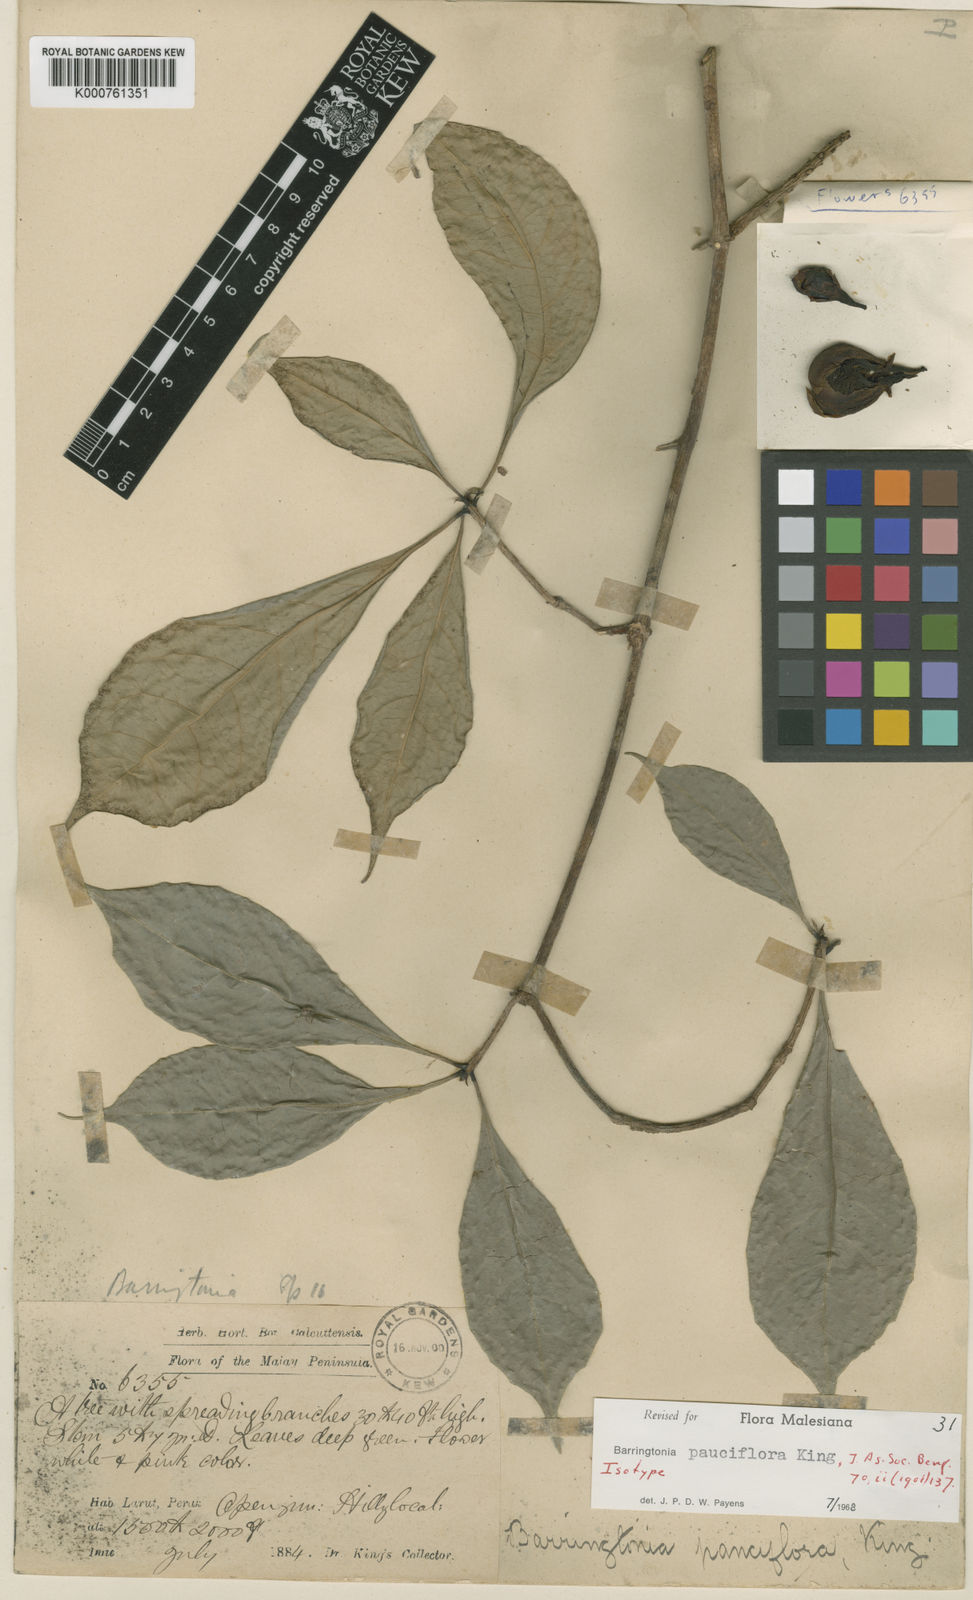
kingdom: Plantae
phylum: Tracheophyta
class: Magnoliopsida
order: Ericales
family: Lecythidaceae
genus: Barringtonia
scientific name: Barringtonia pauciflora
